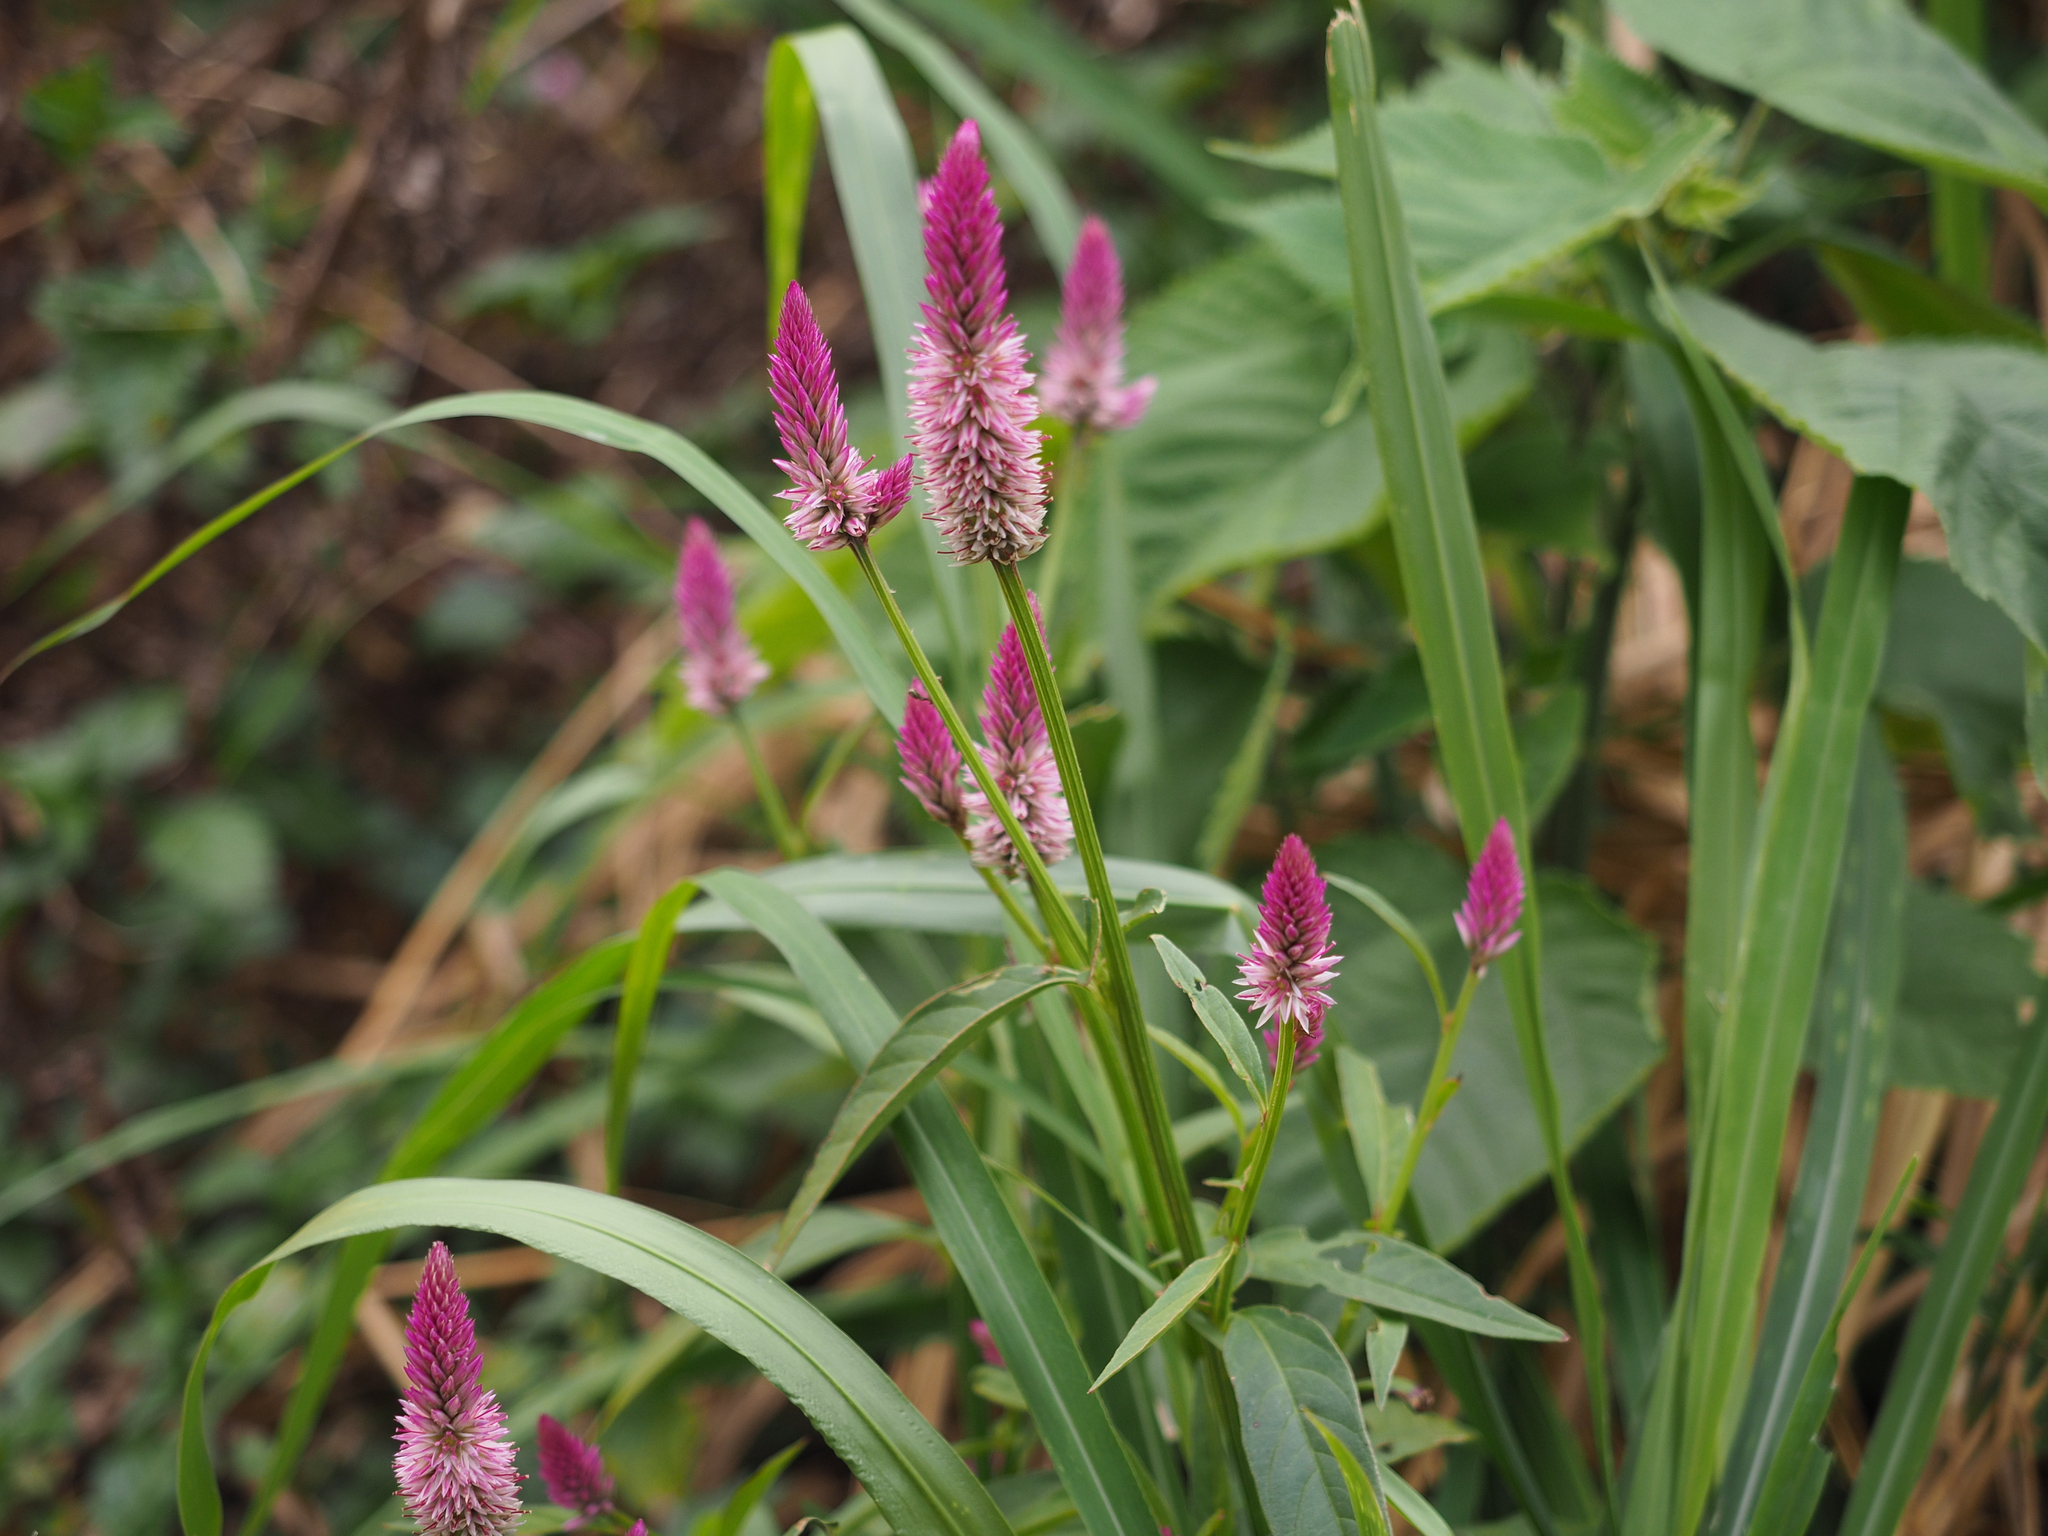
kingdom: Plantae
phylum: Tracheophyta
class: Magnoliopsida
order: Caryophyllales
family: Amaranthaceae
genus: Celosia
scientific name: Celosia argentea
